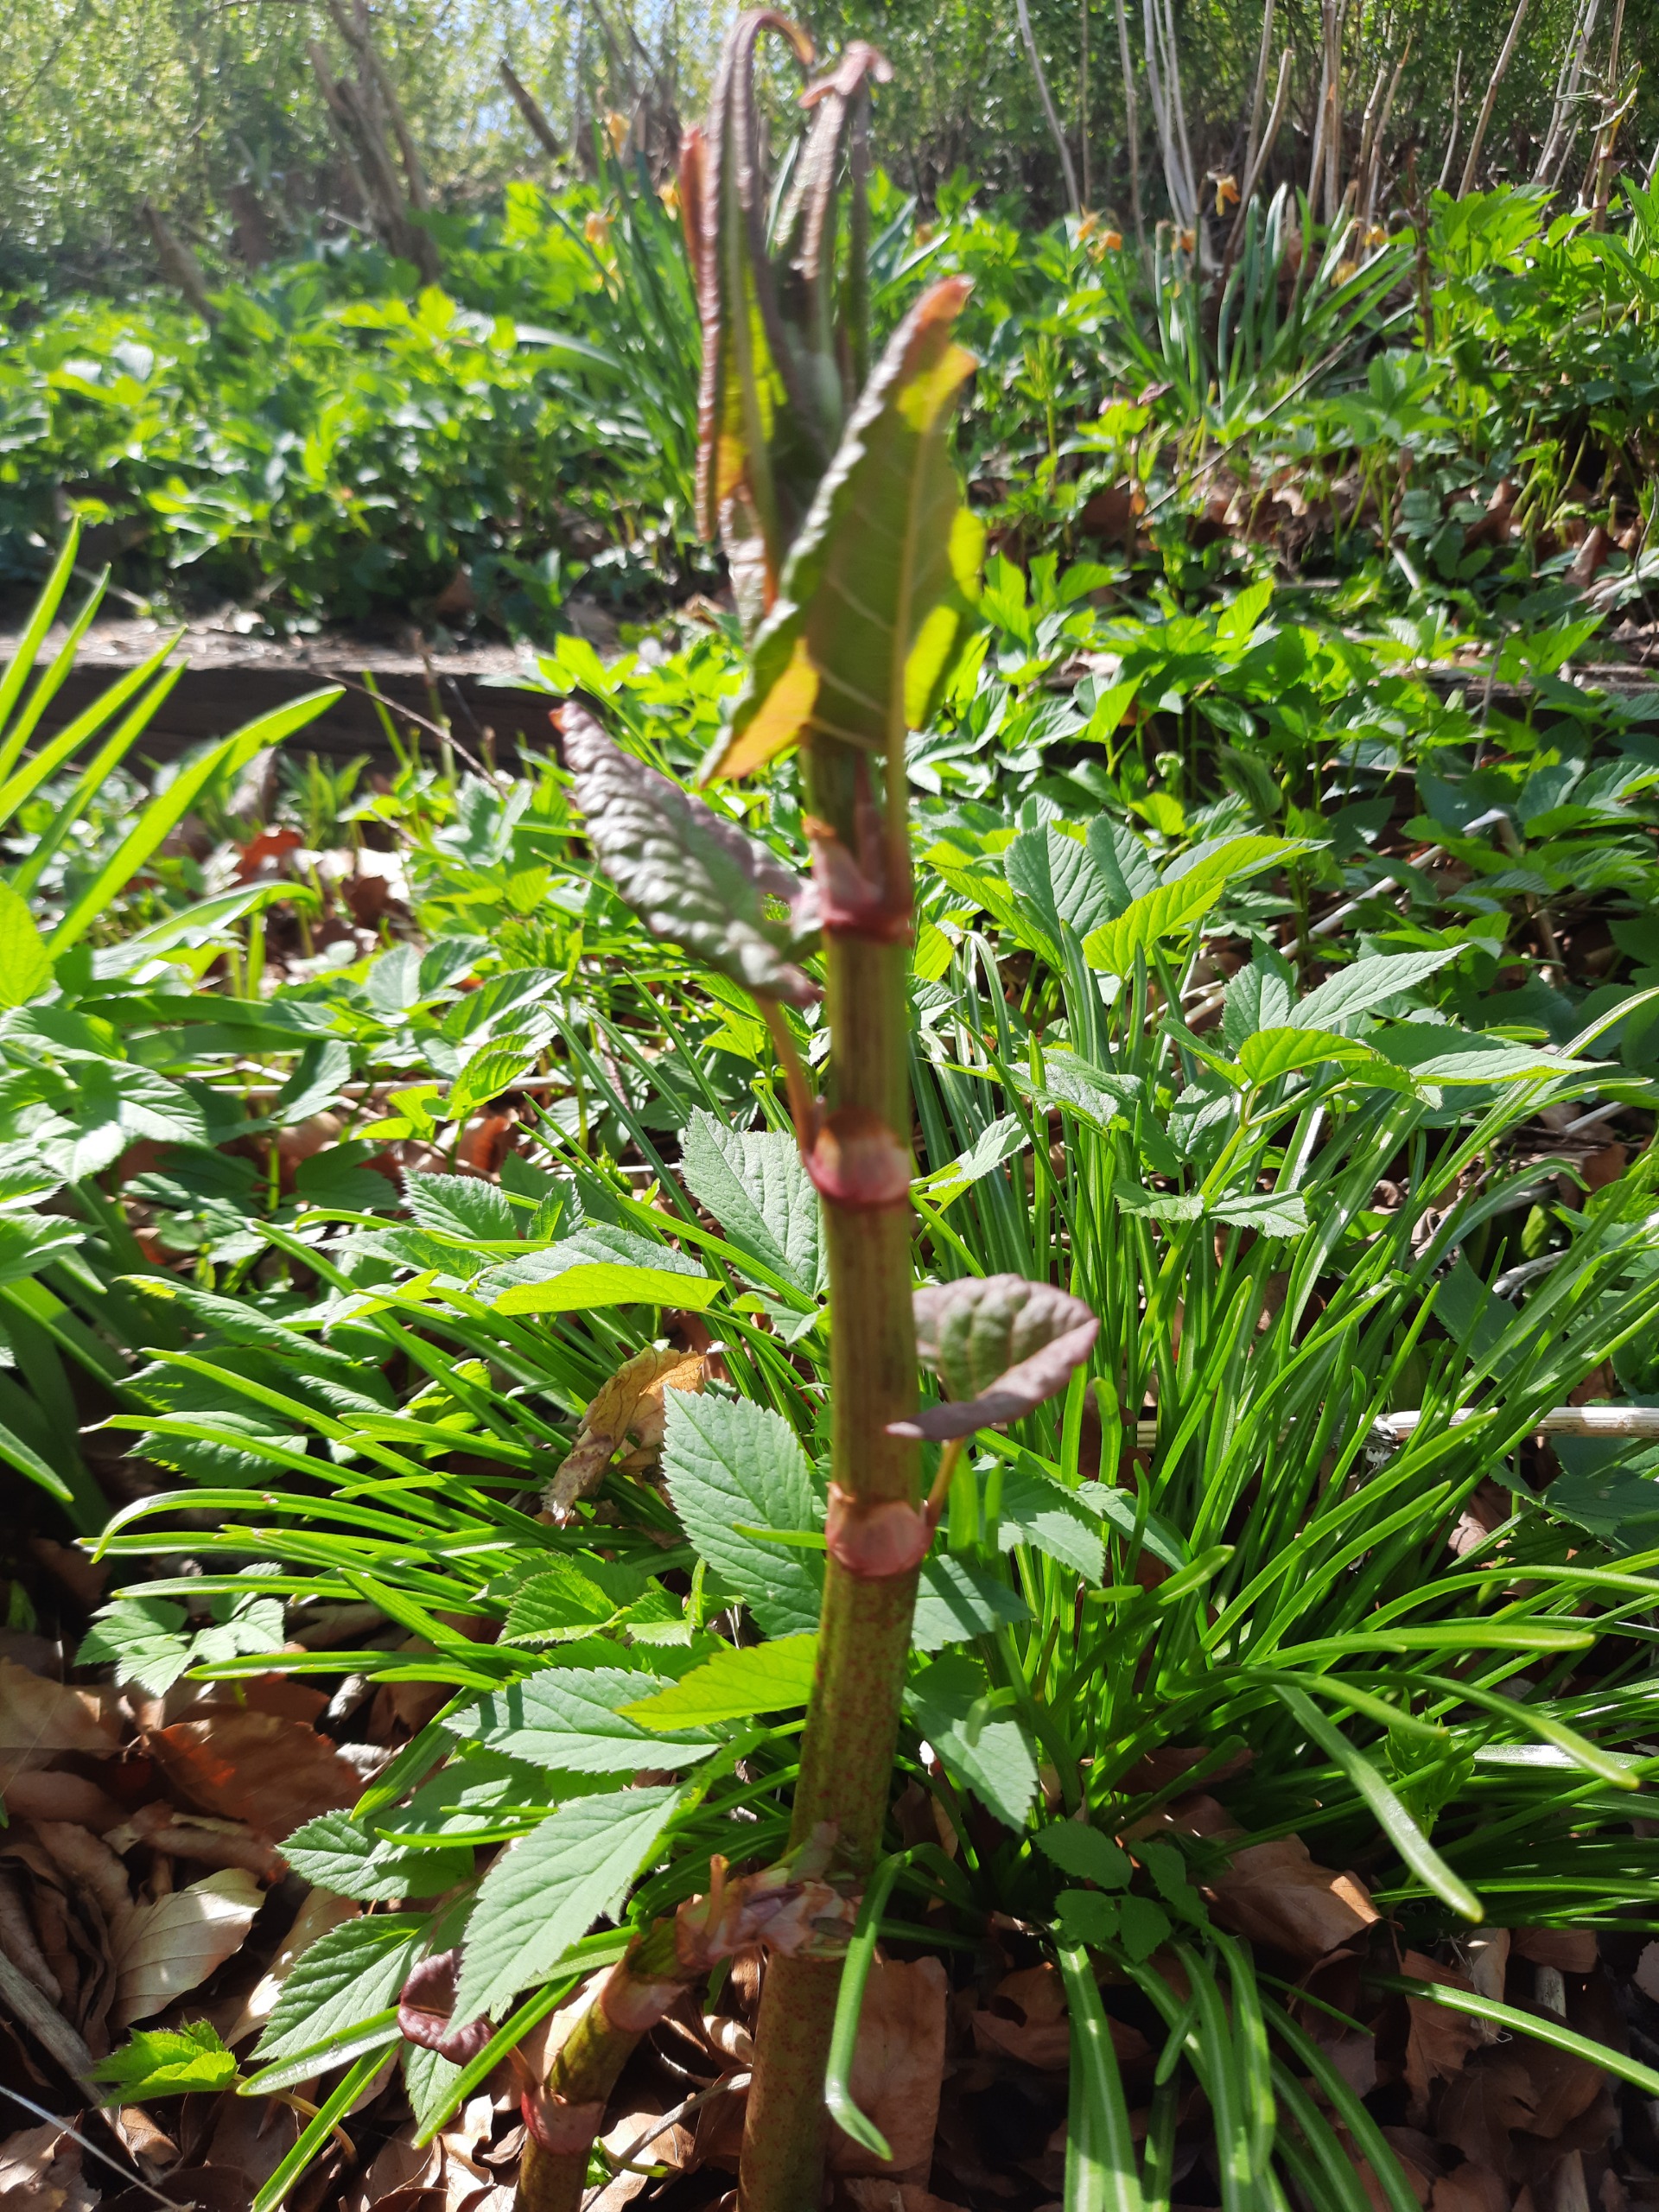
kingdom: Plantae
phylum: Tracheophyta
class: Magnoliopsida
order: Caryophyllales
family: Polygonaceae
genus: Reynoutria
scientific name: Reynoutria
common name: Pileurt (Reynoutria-slægten)
